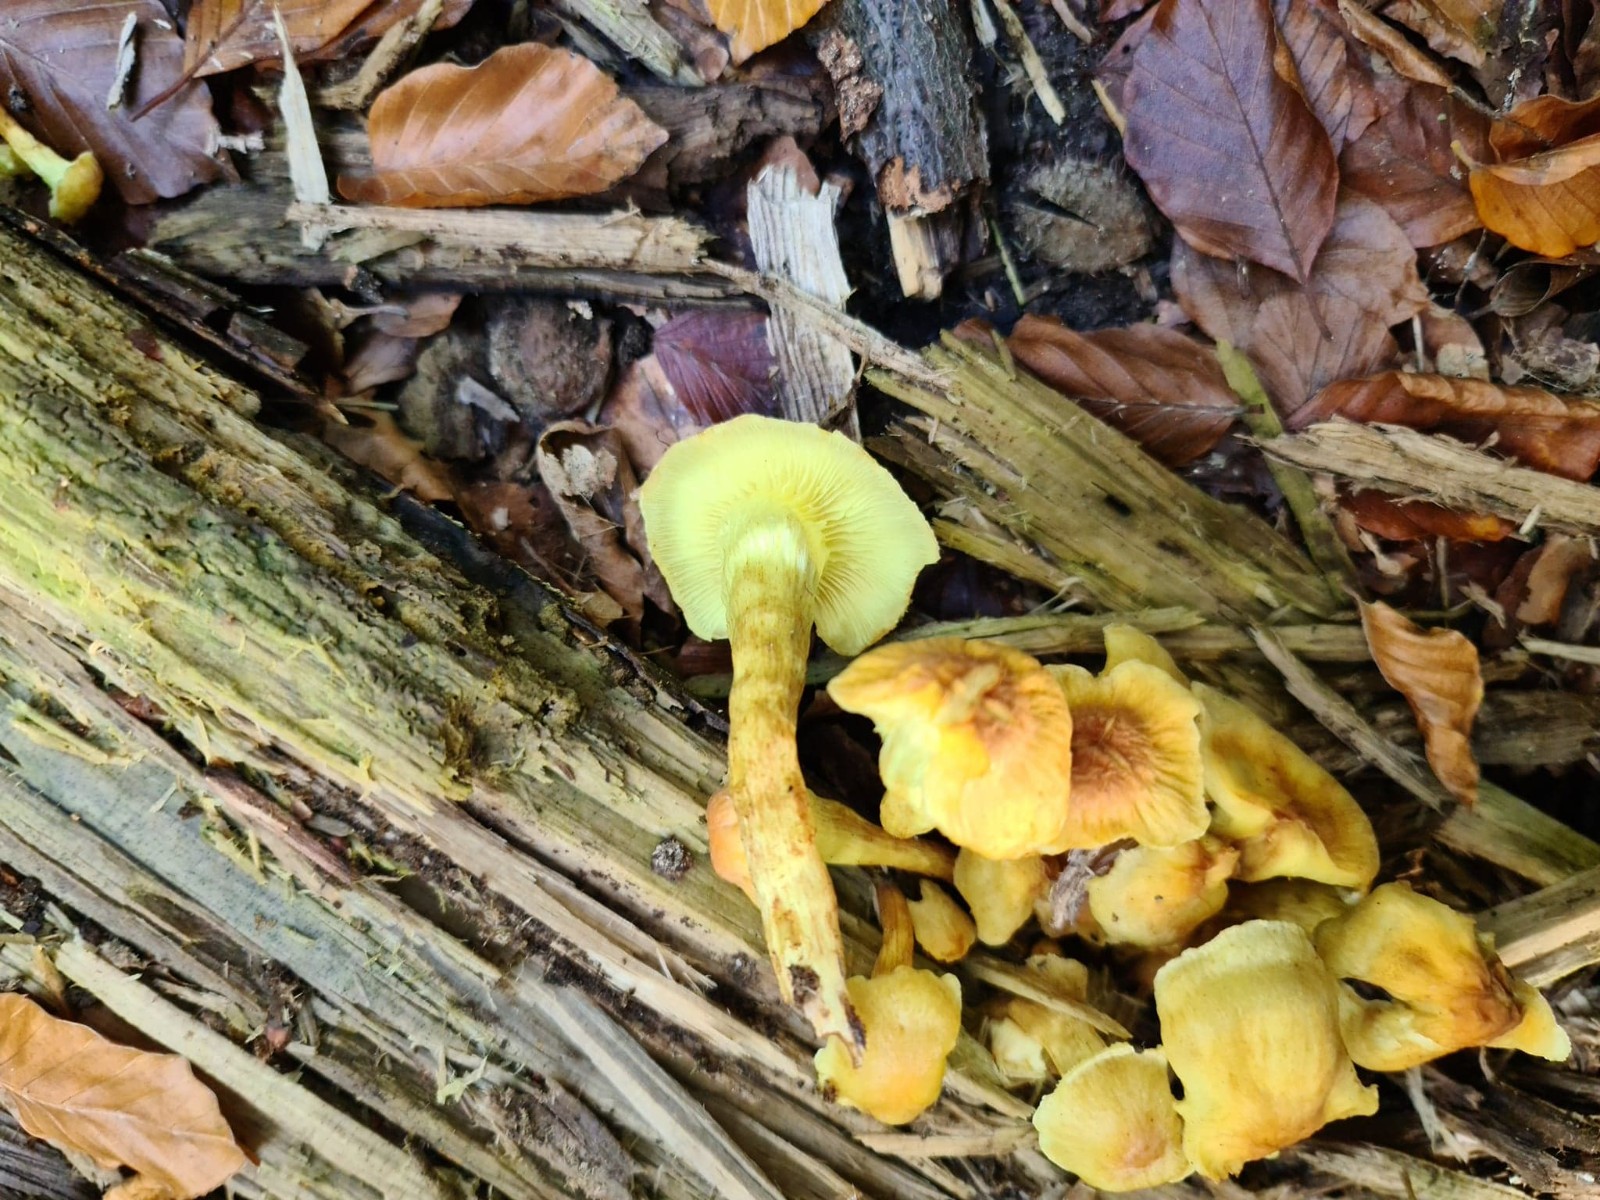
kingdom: Fungi
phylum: Basidiomycota
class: Agaricomycetes
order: Agaricales
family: Strophariaceae
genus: Hypholoma
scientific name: Hypholoma
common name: svovlhat
